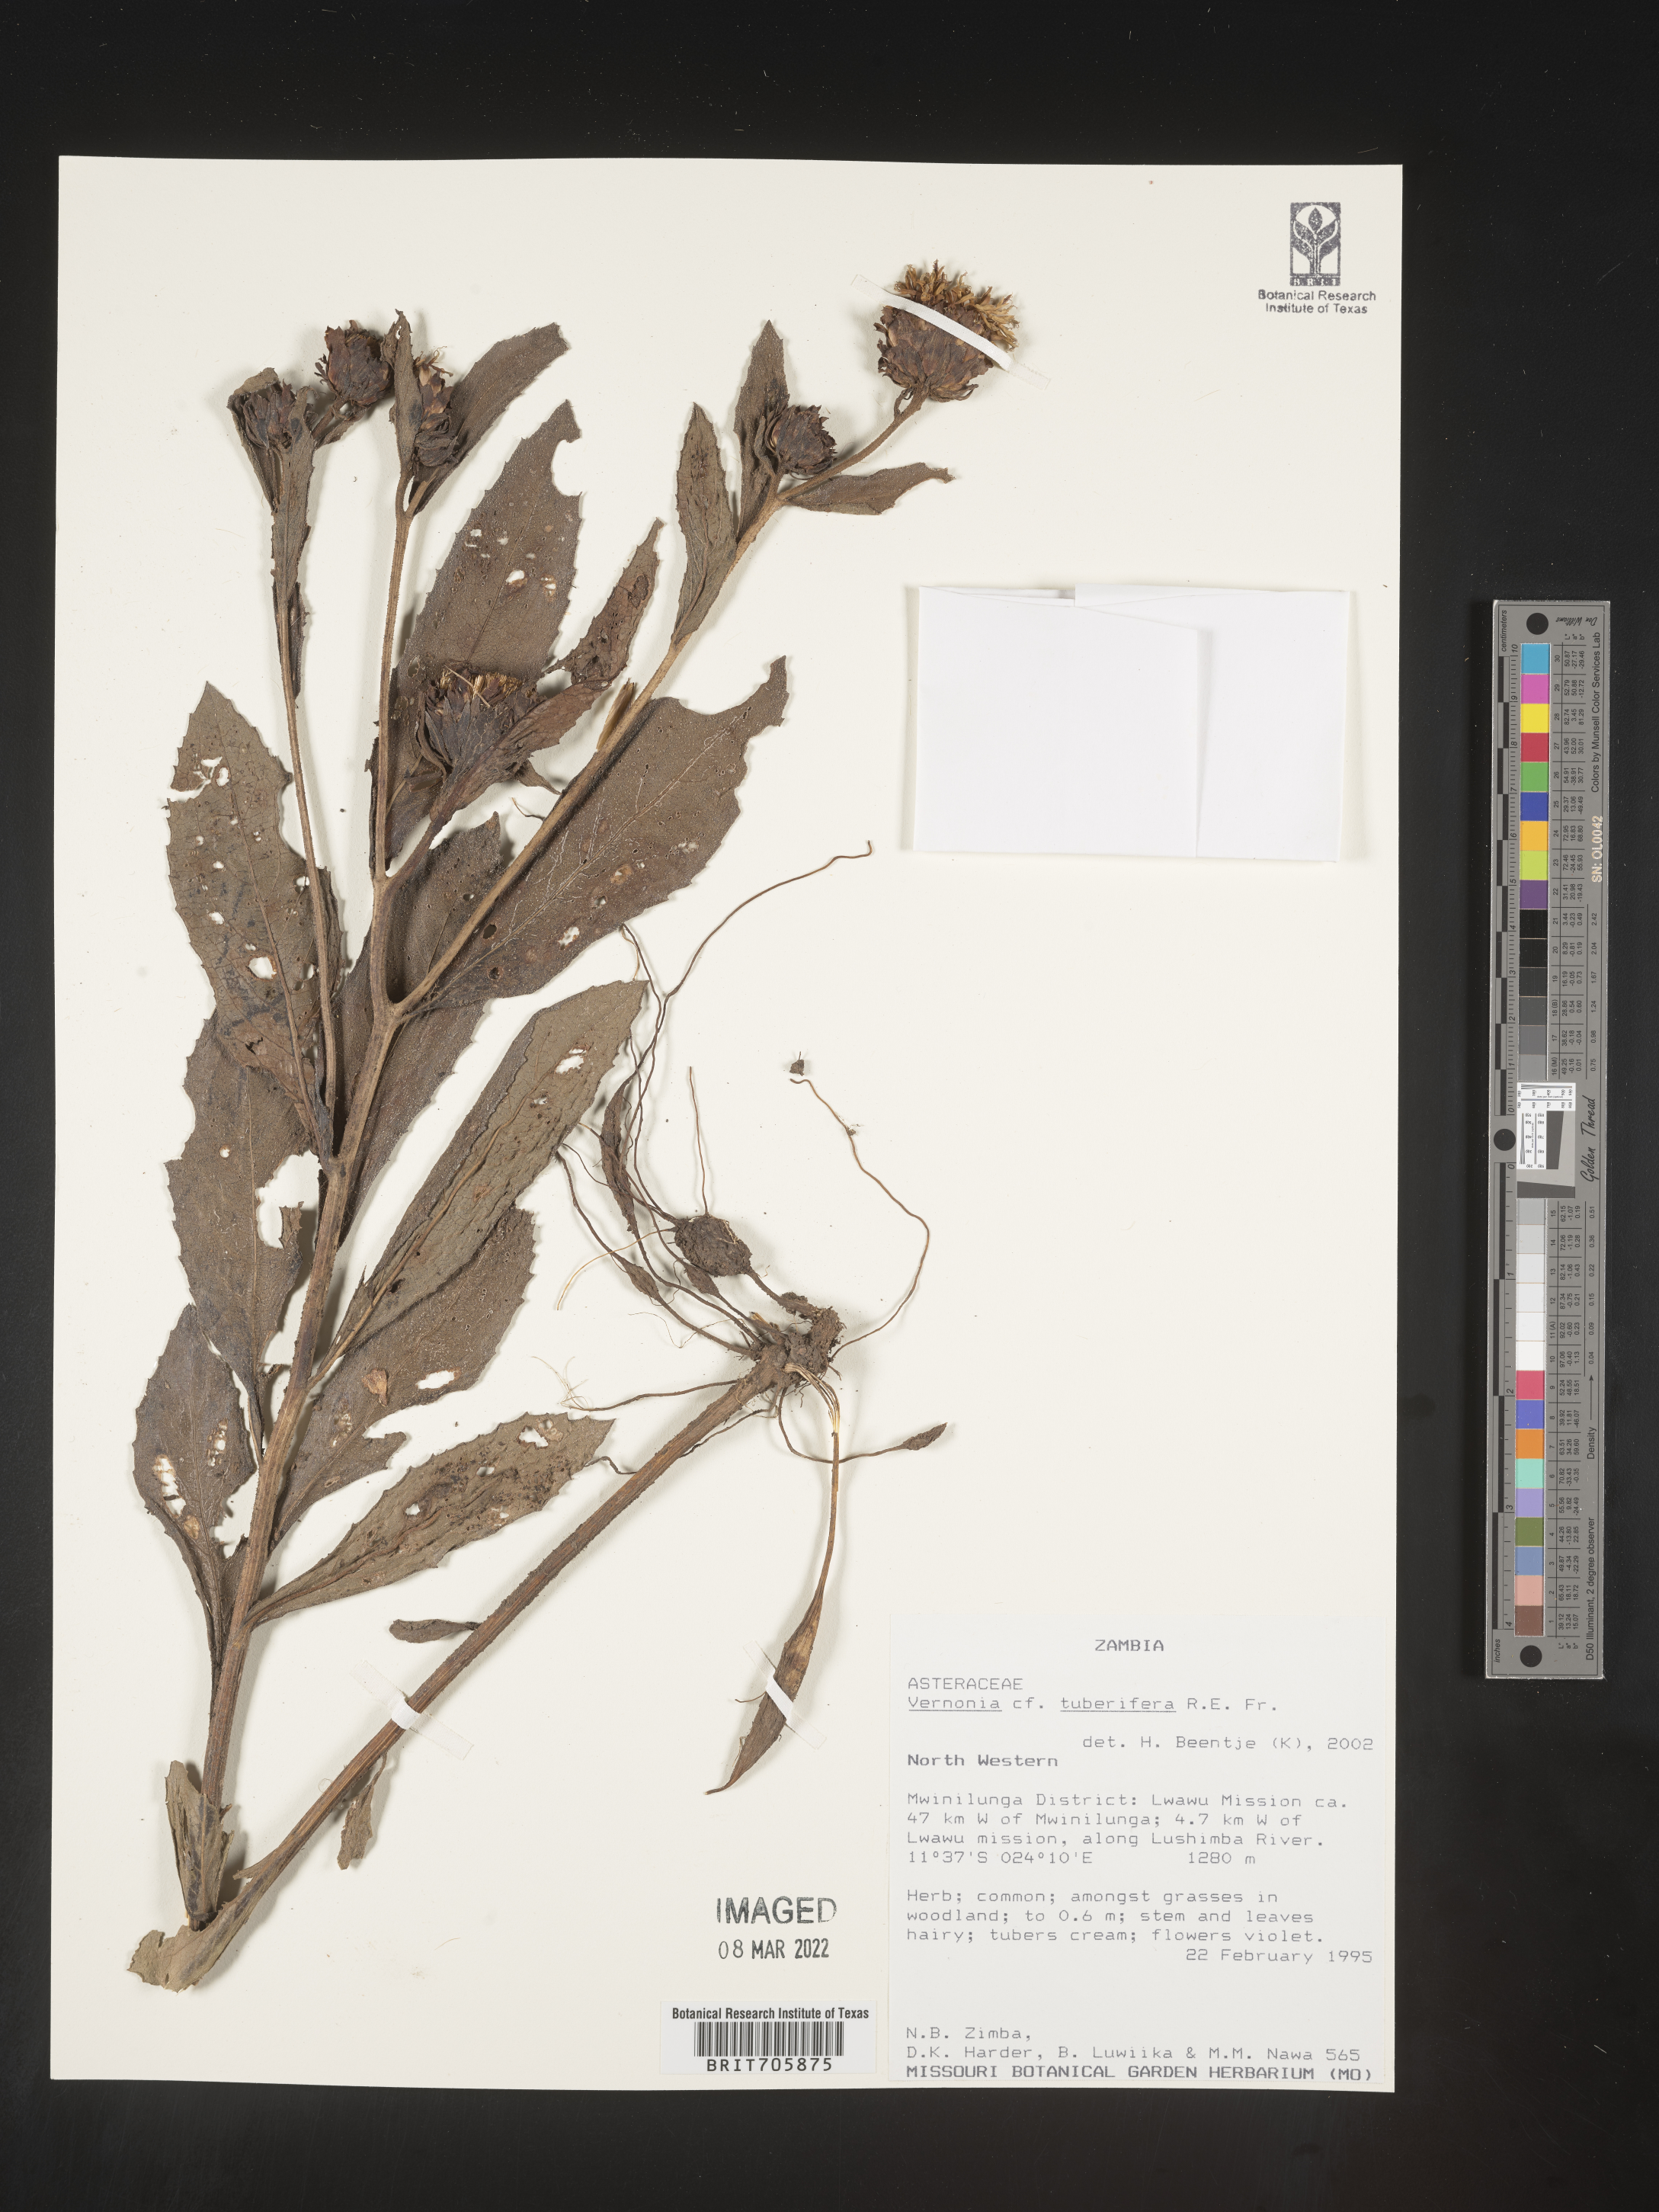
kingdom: Plantae
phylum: Tracheophyta
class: Magnoliopsida
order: Asterales
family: Asteraceae
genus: Vernonia
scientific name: Vernonia
